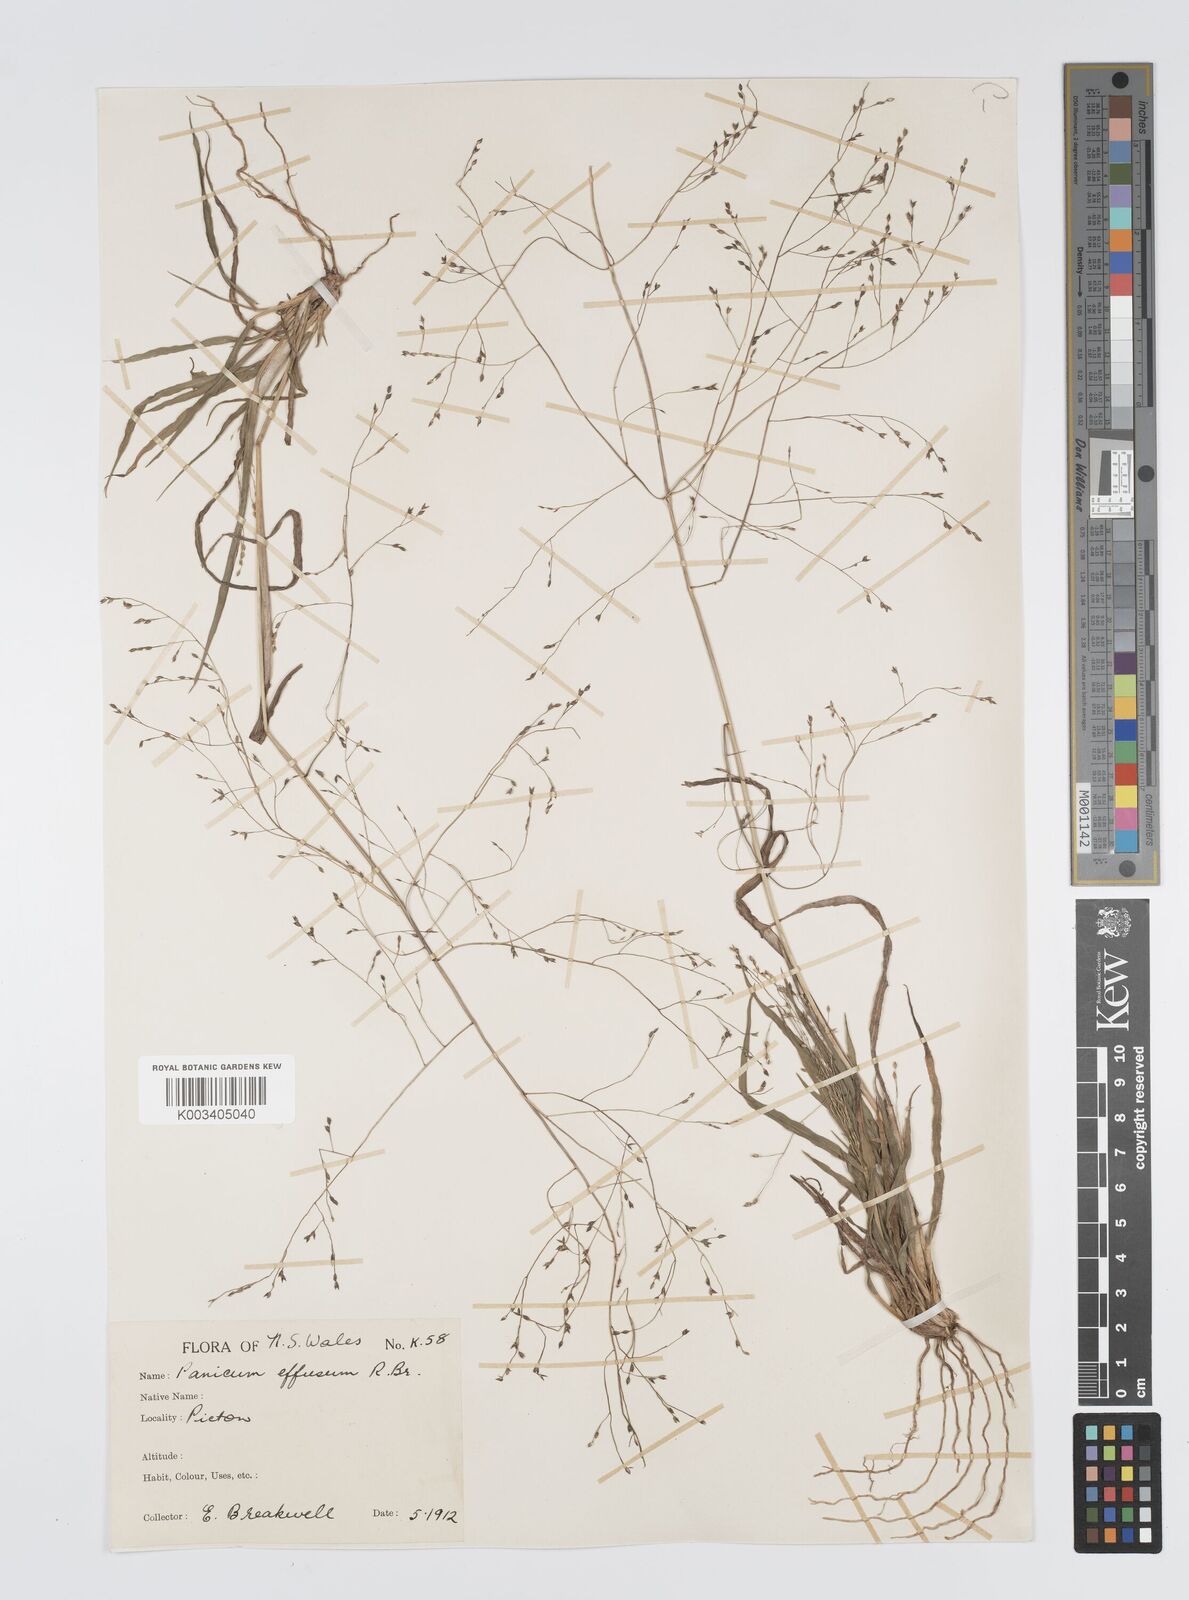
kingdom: Plantae
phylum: Tracheophyta
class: Liliopsida
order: Poales
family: Poaceae
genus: Panicum
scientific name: Panicum effusum
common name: Hairy panic grass
